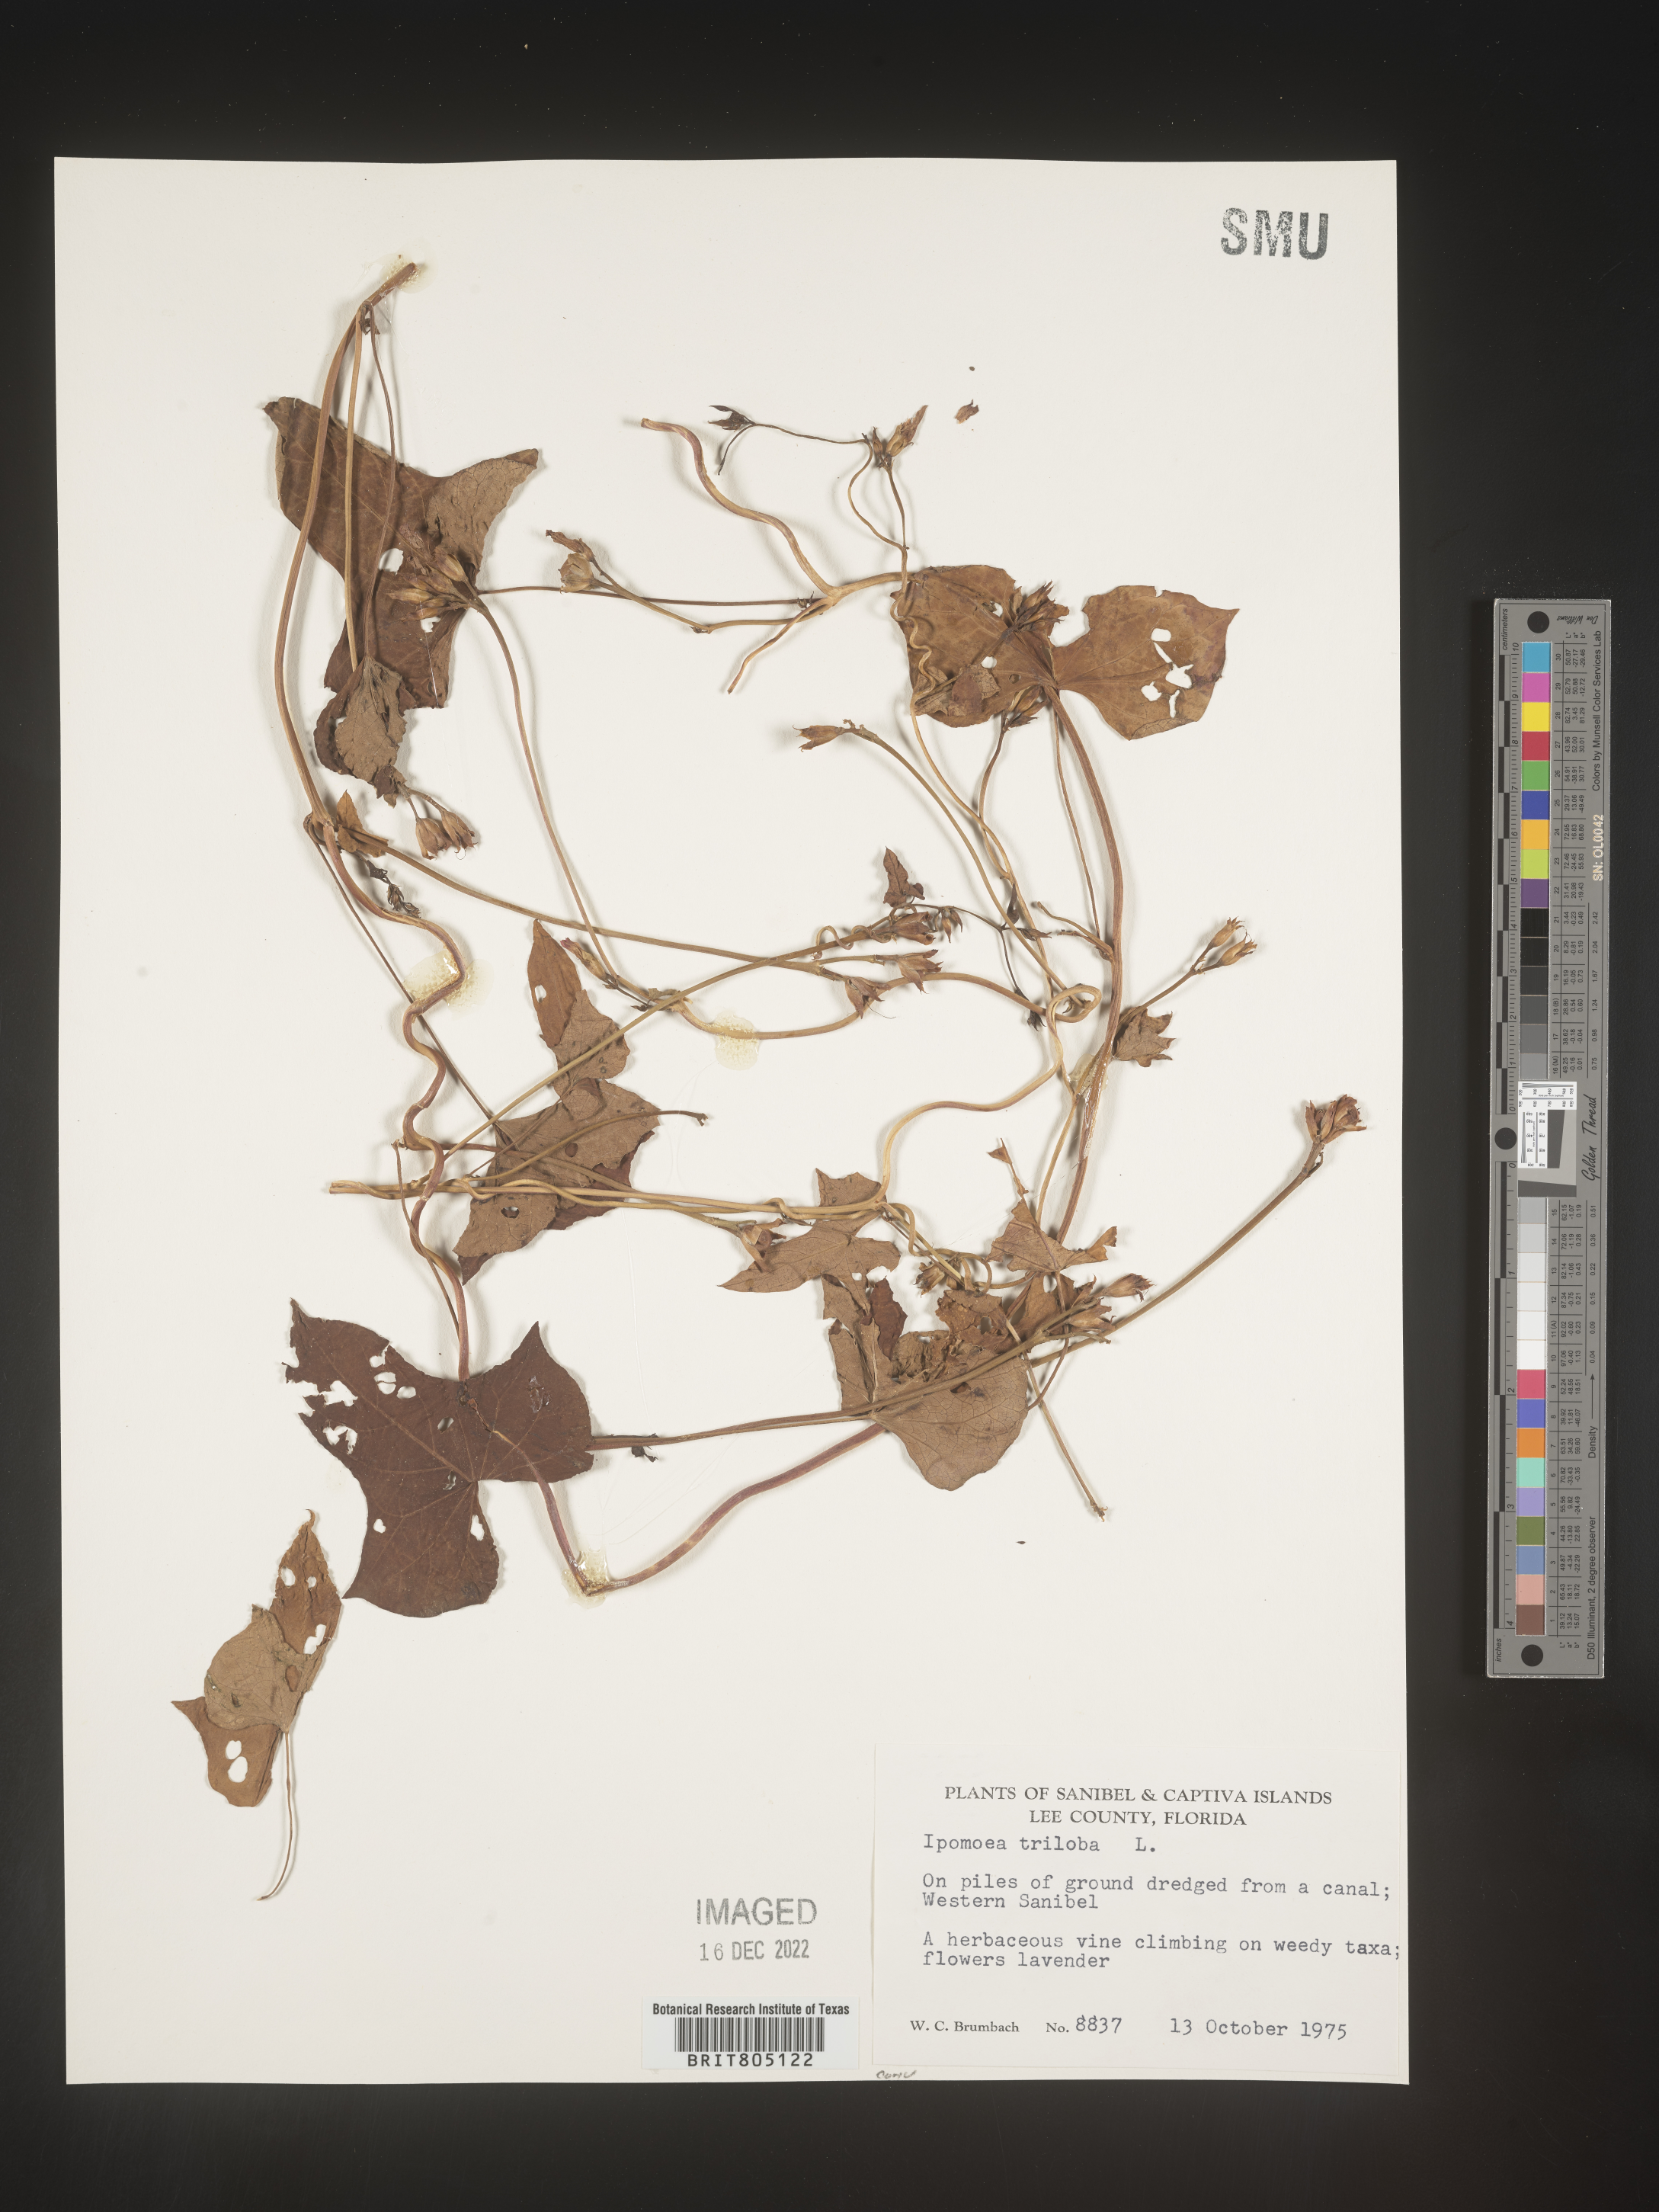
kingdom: Plantae
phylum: Tracheophyta
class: Magnoliopsida
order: Solanales
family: Convolvulaceae
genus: Ipomoea
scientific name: Ipomoea triloba
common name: Little-bell
